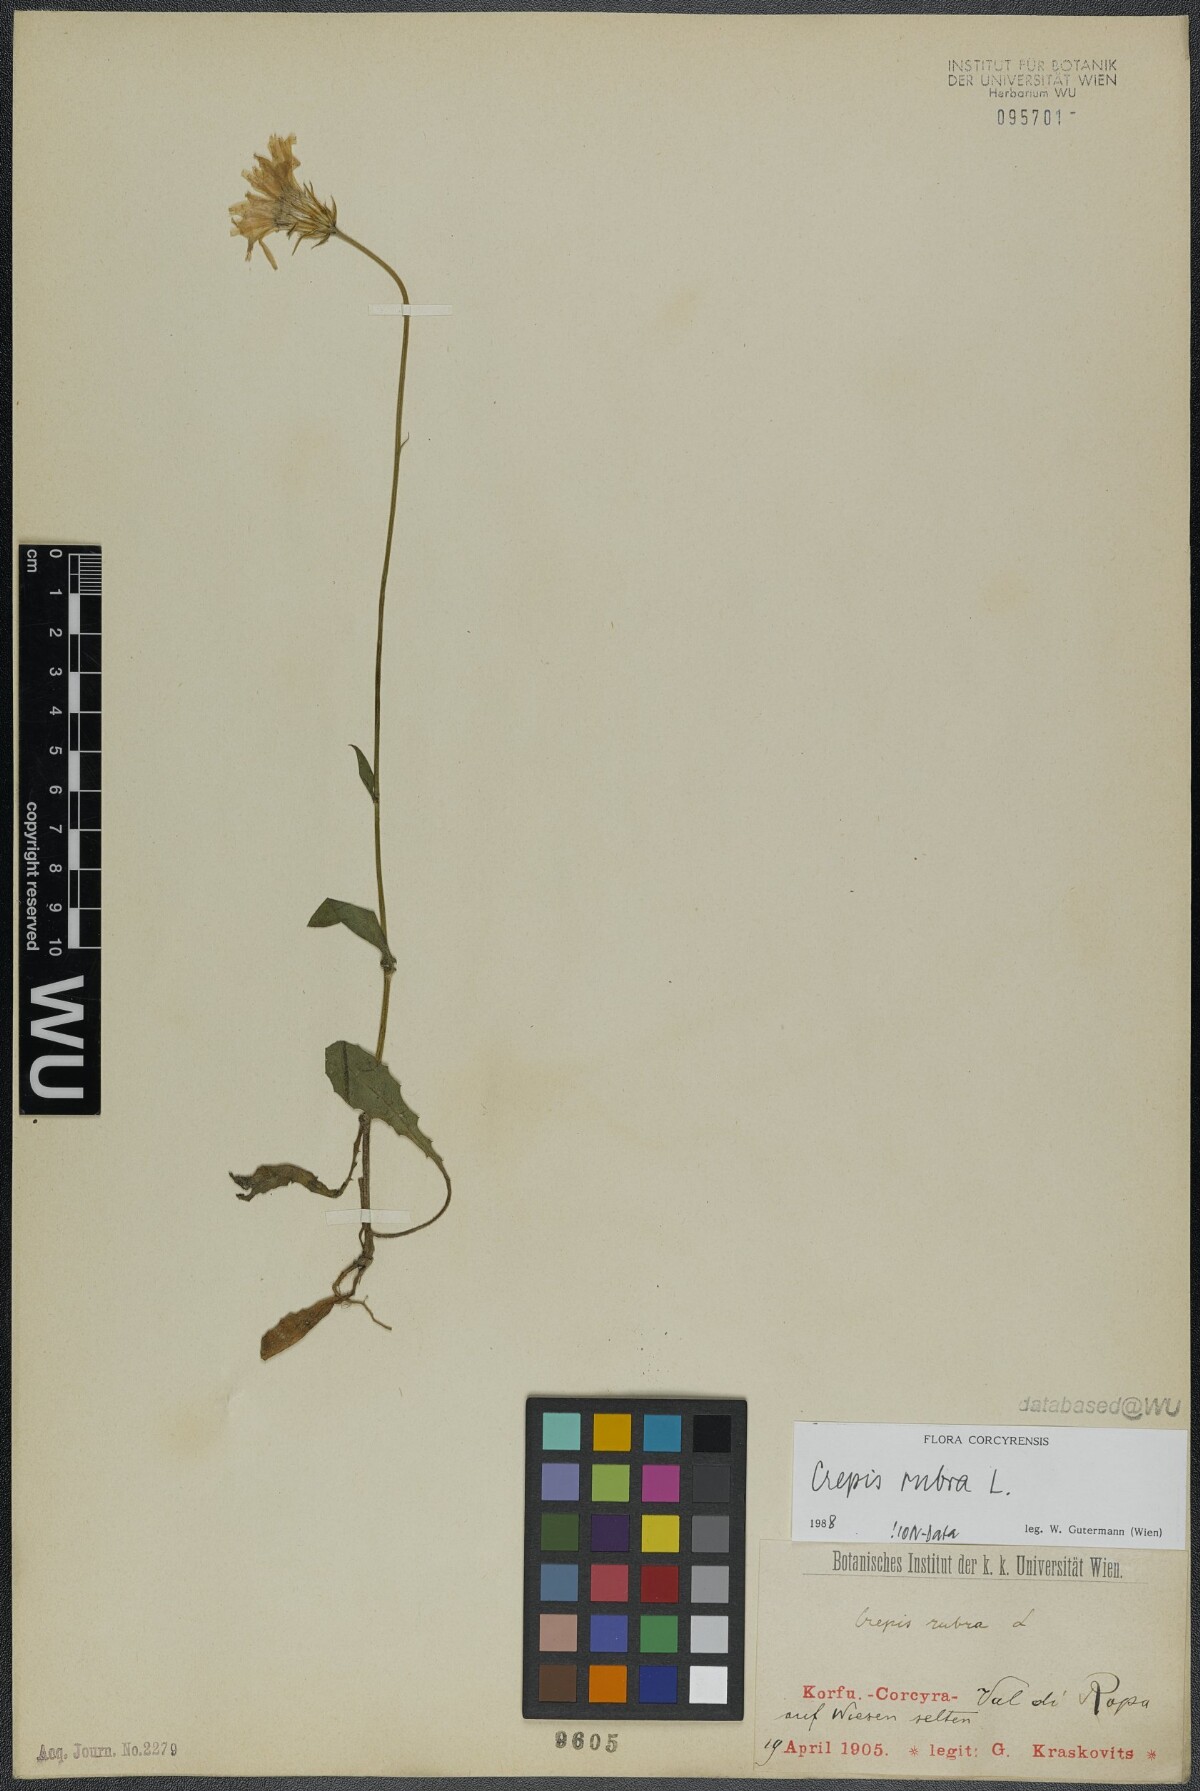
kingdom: Plantae
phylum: Tracheophyta
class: Magnoliopsida
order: Asterales
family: Asteraceae
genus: Crepis
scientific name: Crepis rubra
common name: Pink hawk's-beard
